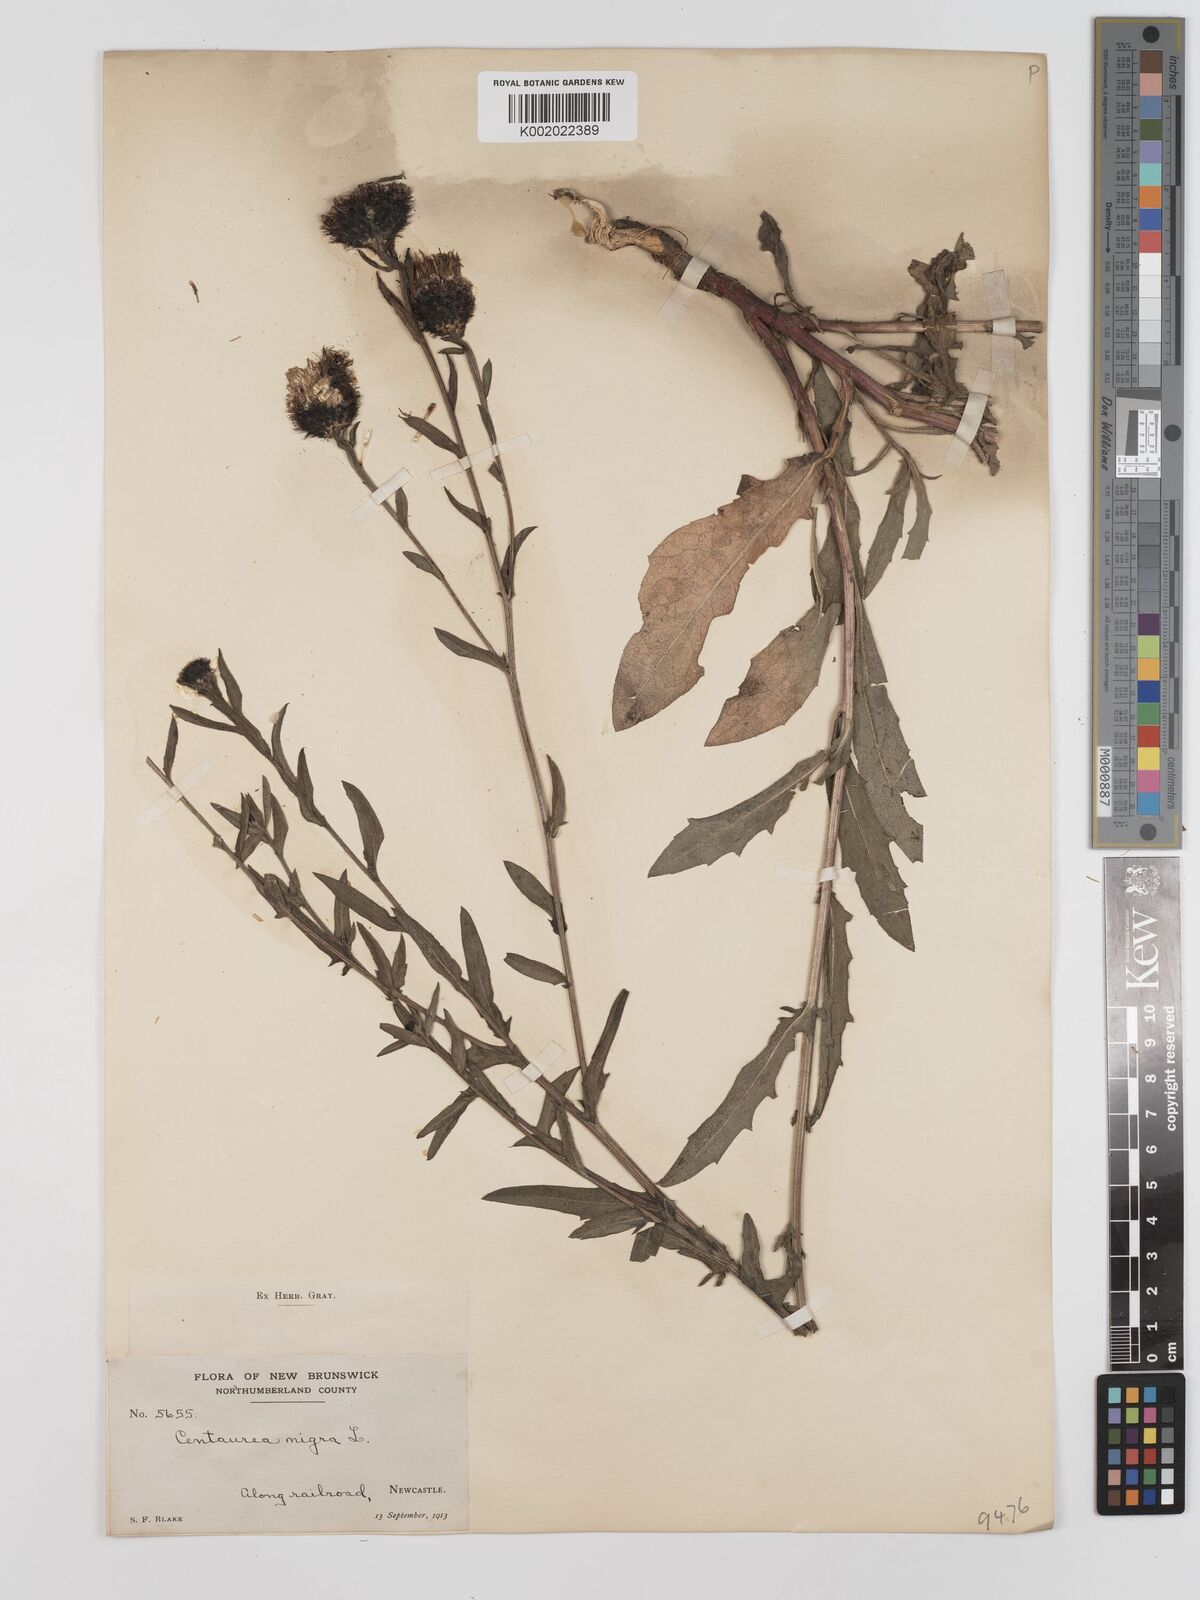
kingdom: Plantae
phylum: Tracheophyta
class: Magnoliopsida
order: Asterales
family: Asteraceae
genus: Centaurea
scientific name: Centaurea nigra
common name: Lesser knapweed
